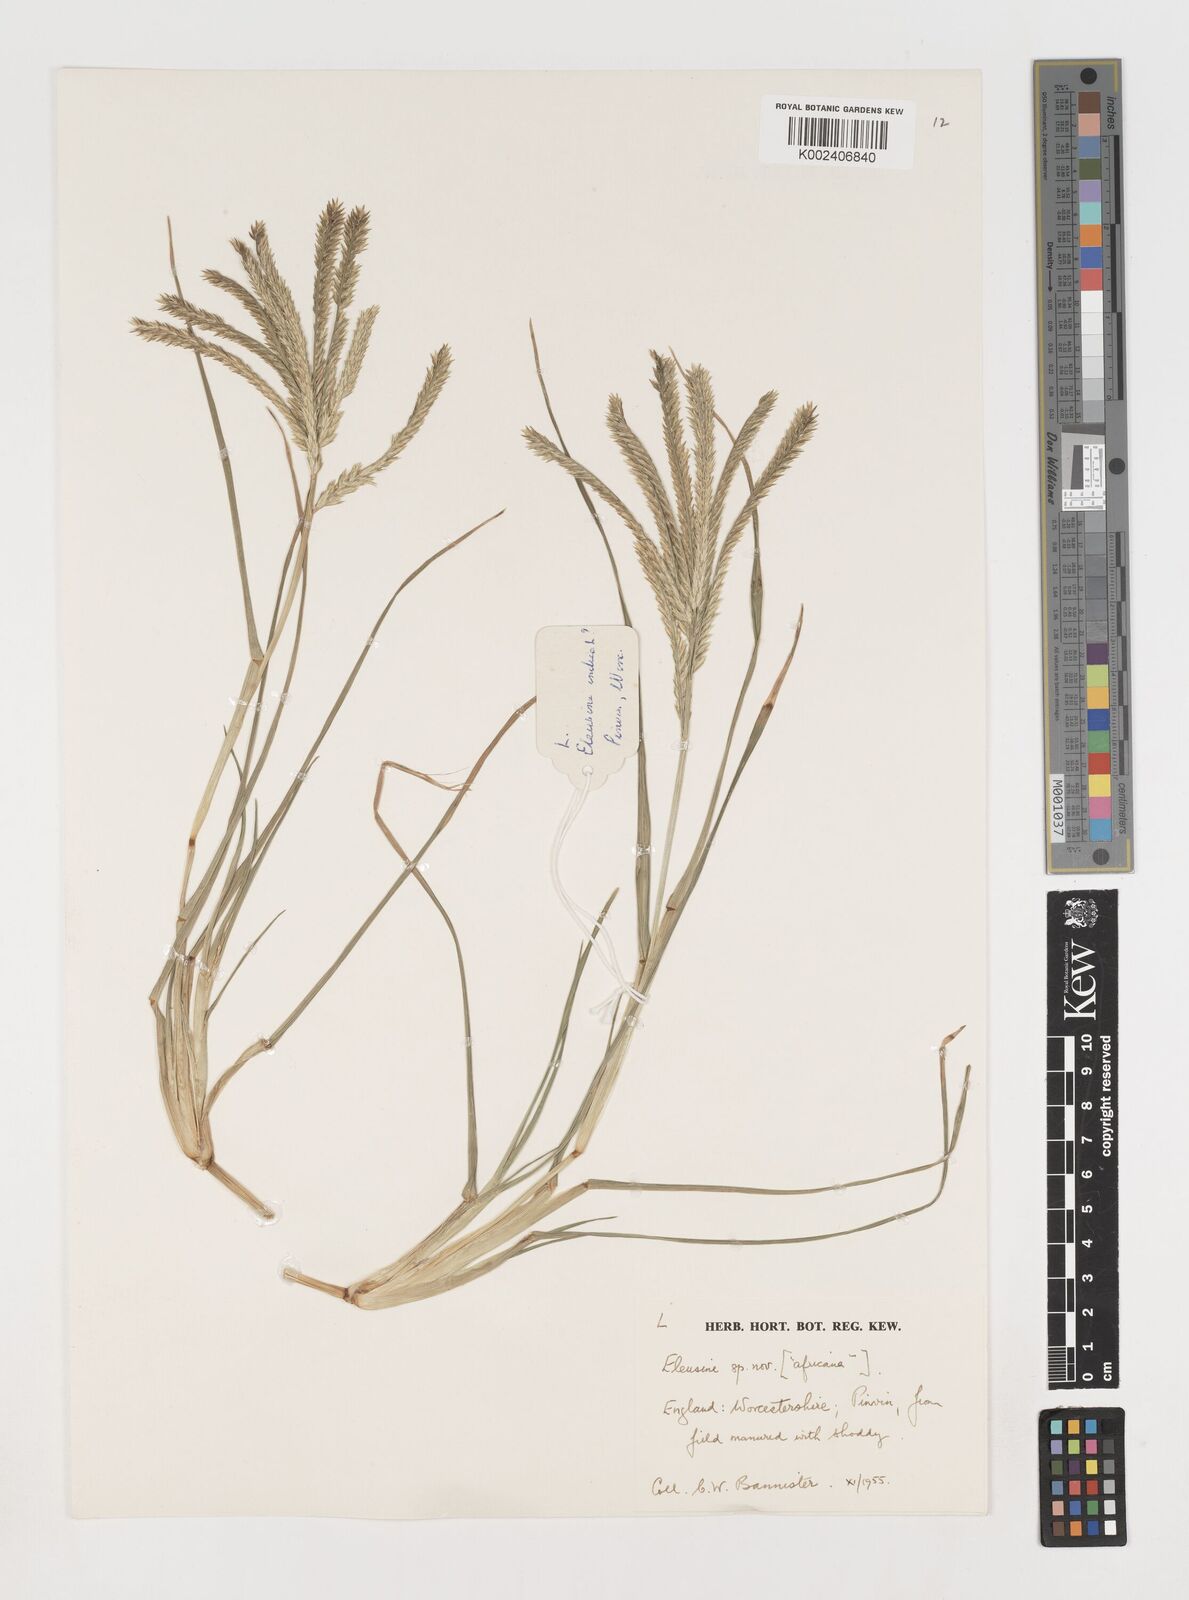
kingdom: Plantae
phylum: Tracheophyta
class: Liliopsida
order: Poales
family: Poaceae
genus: Eleusine
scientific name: Eleusine africana
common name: Wild african finger millet
